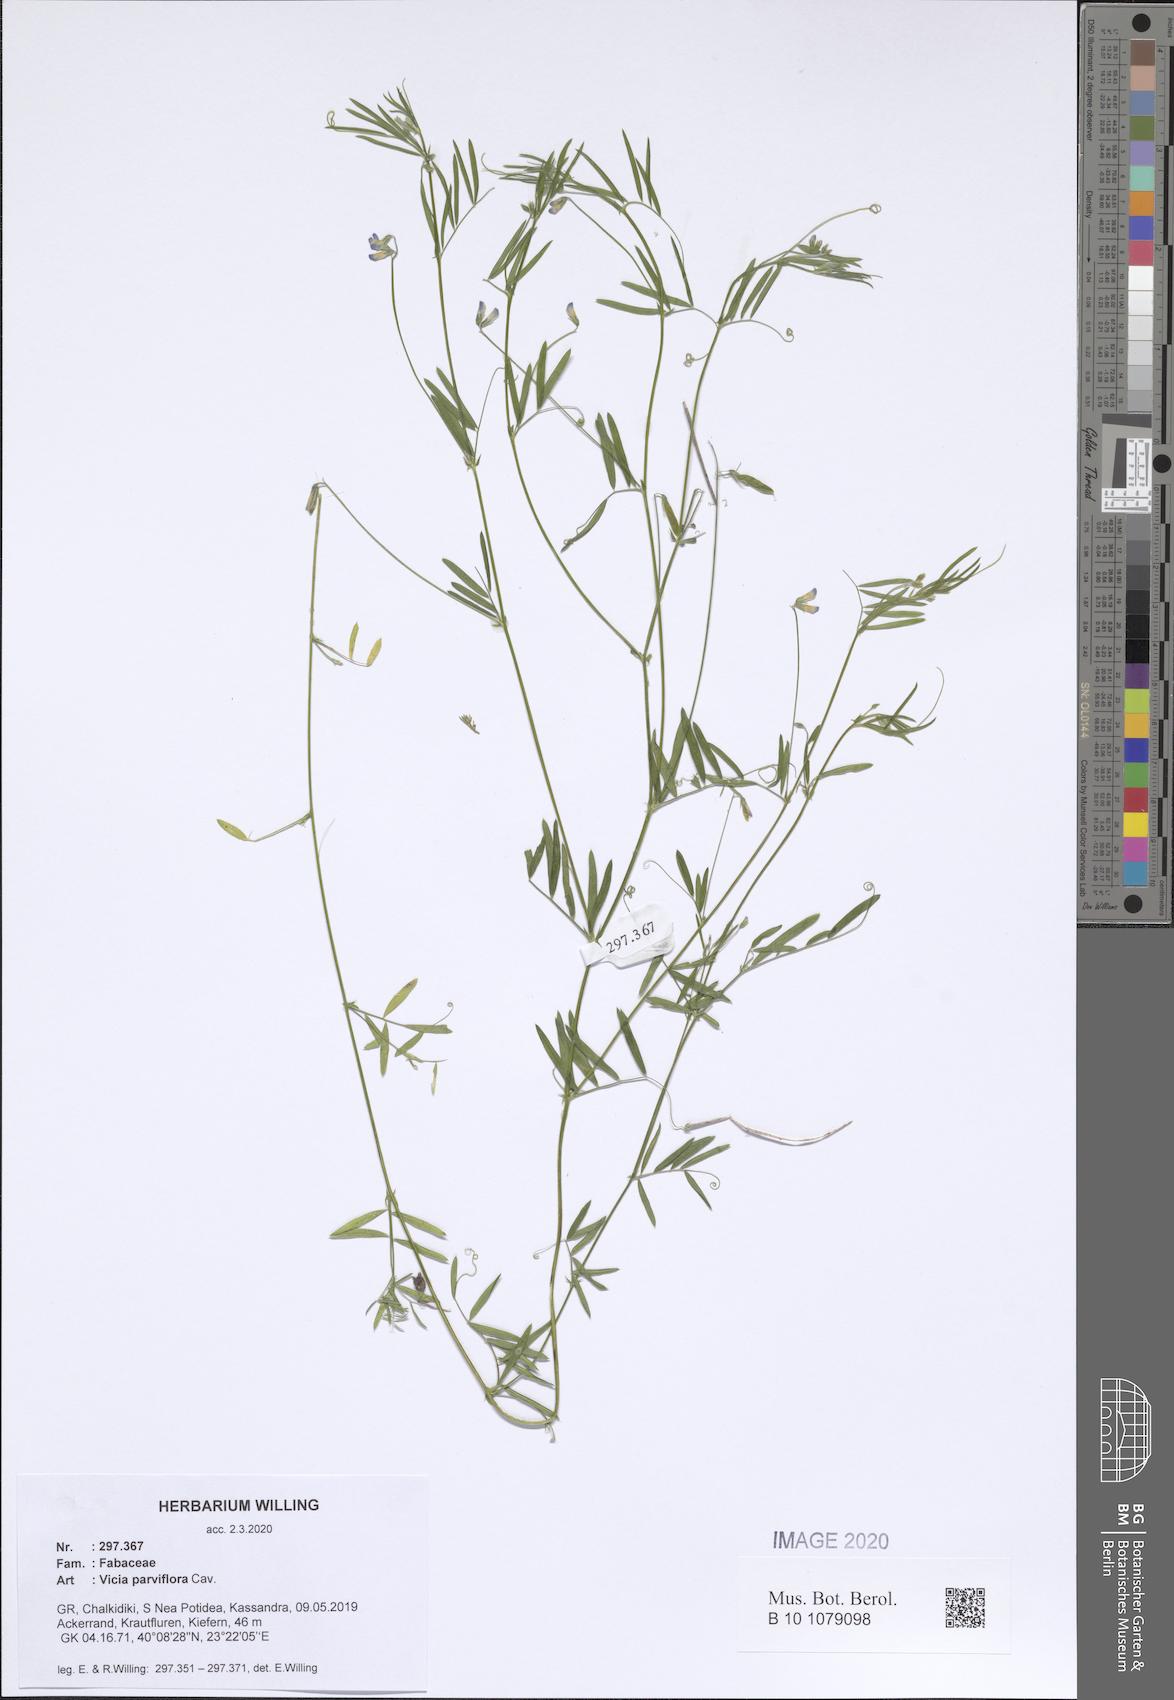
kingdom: Plantae
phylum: Tracheophyta
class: Magnoliopsida
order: Fabales
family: Fabaceae
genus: Vicia
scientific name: Vicia parviflora
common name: Slender tare
